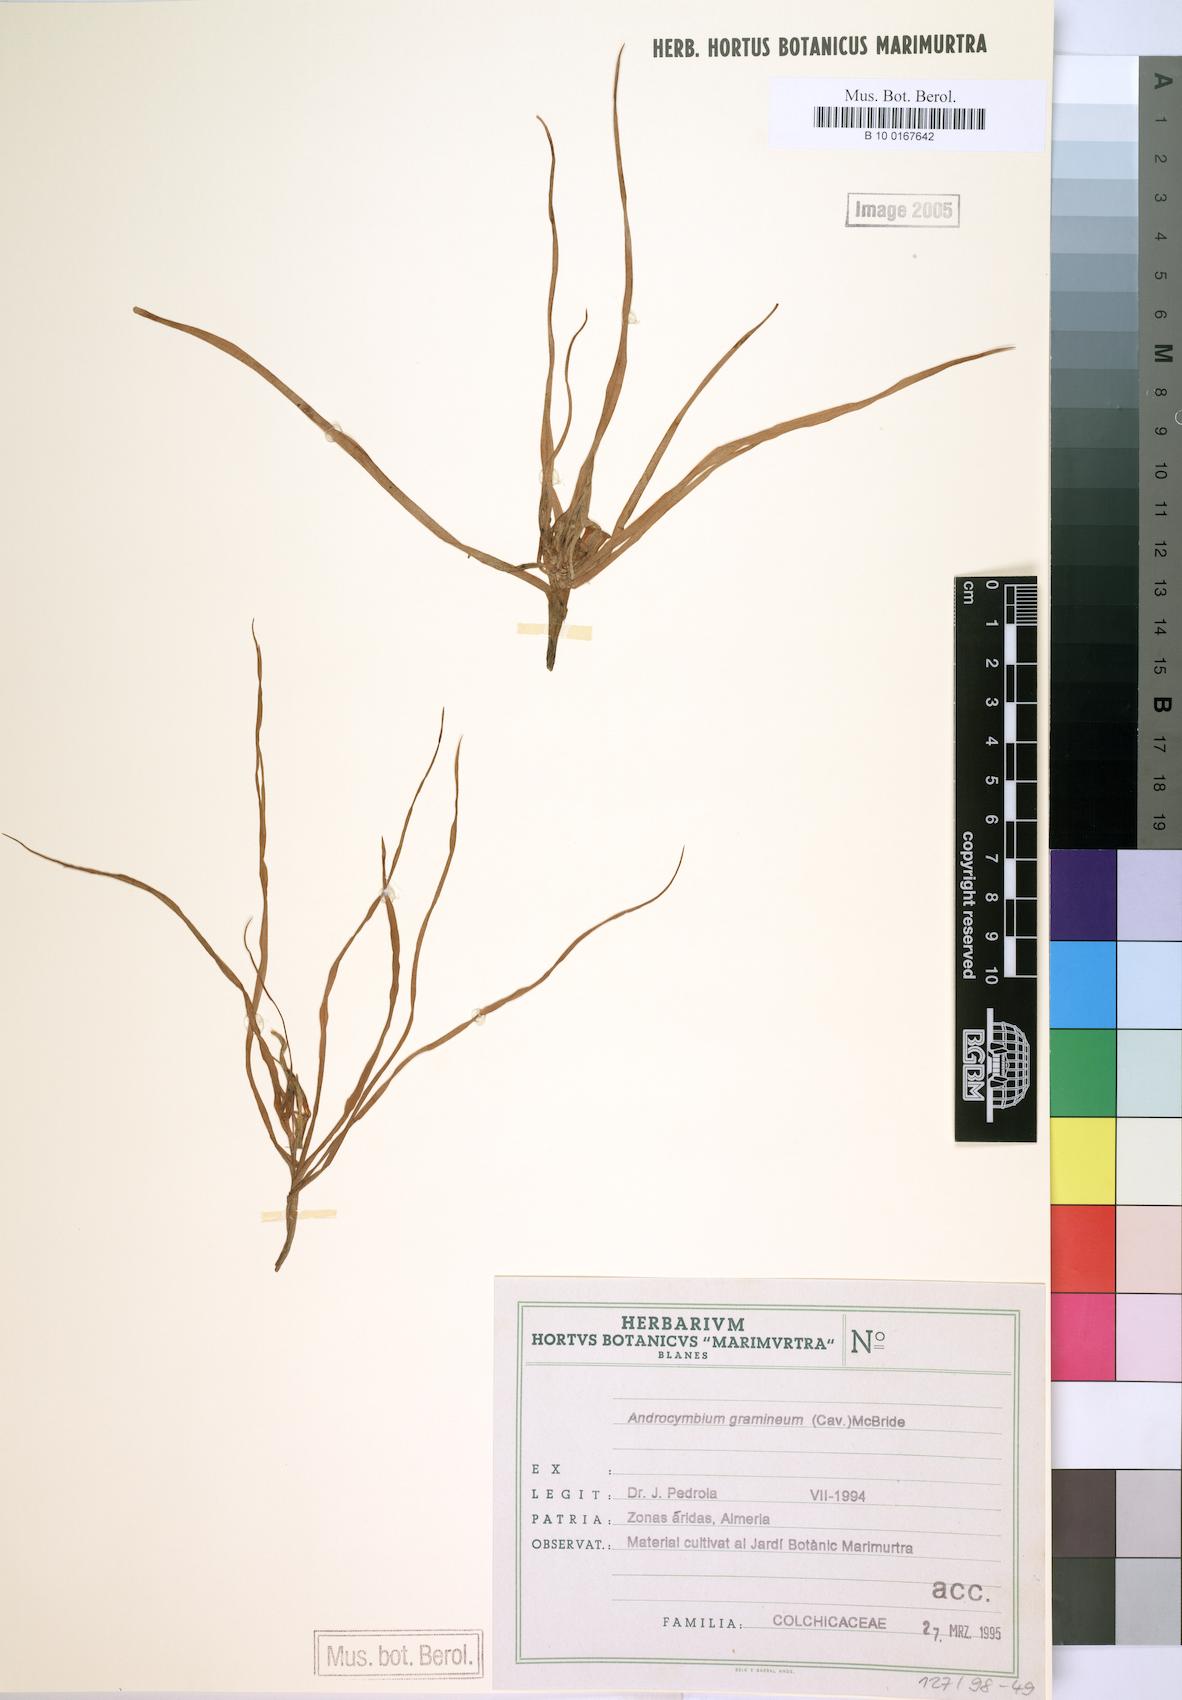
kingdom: Plantae
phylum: Tracheophyta
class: Liliopsida
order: Liliales
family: Colchicaceae
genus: Colchicum
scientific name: Colchicum gramineum
